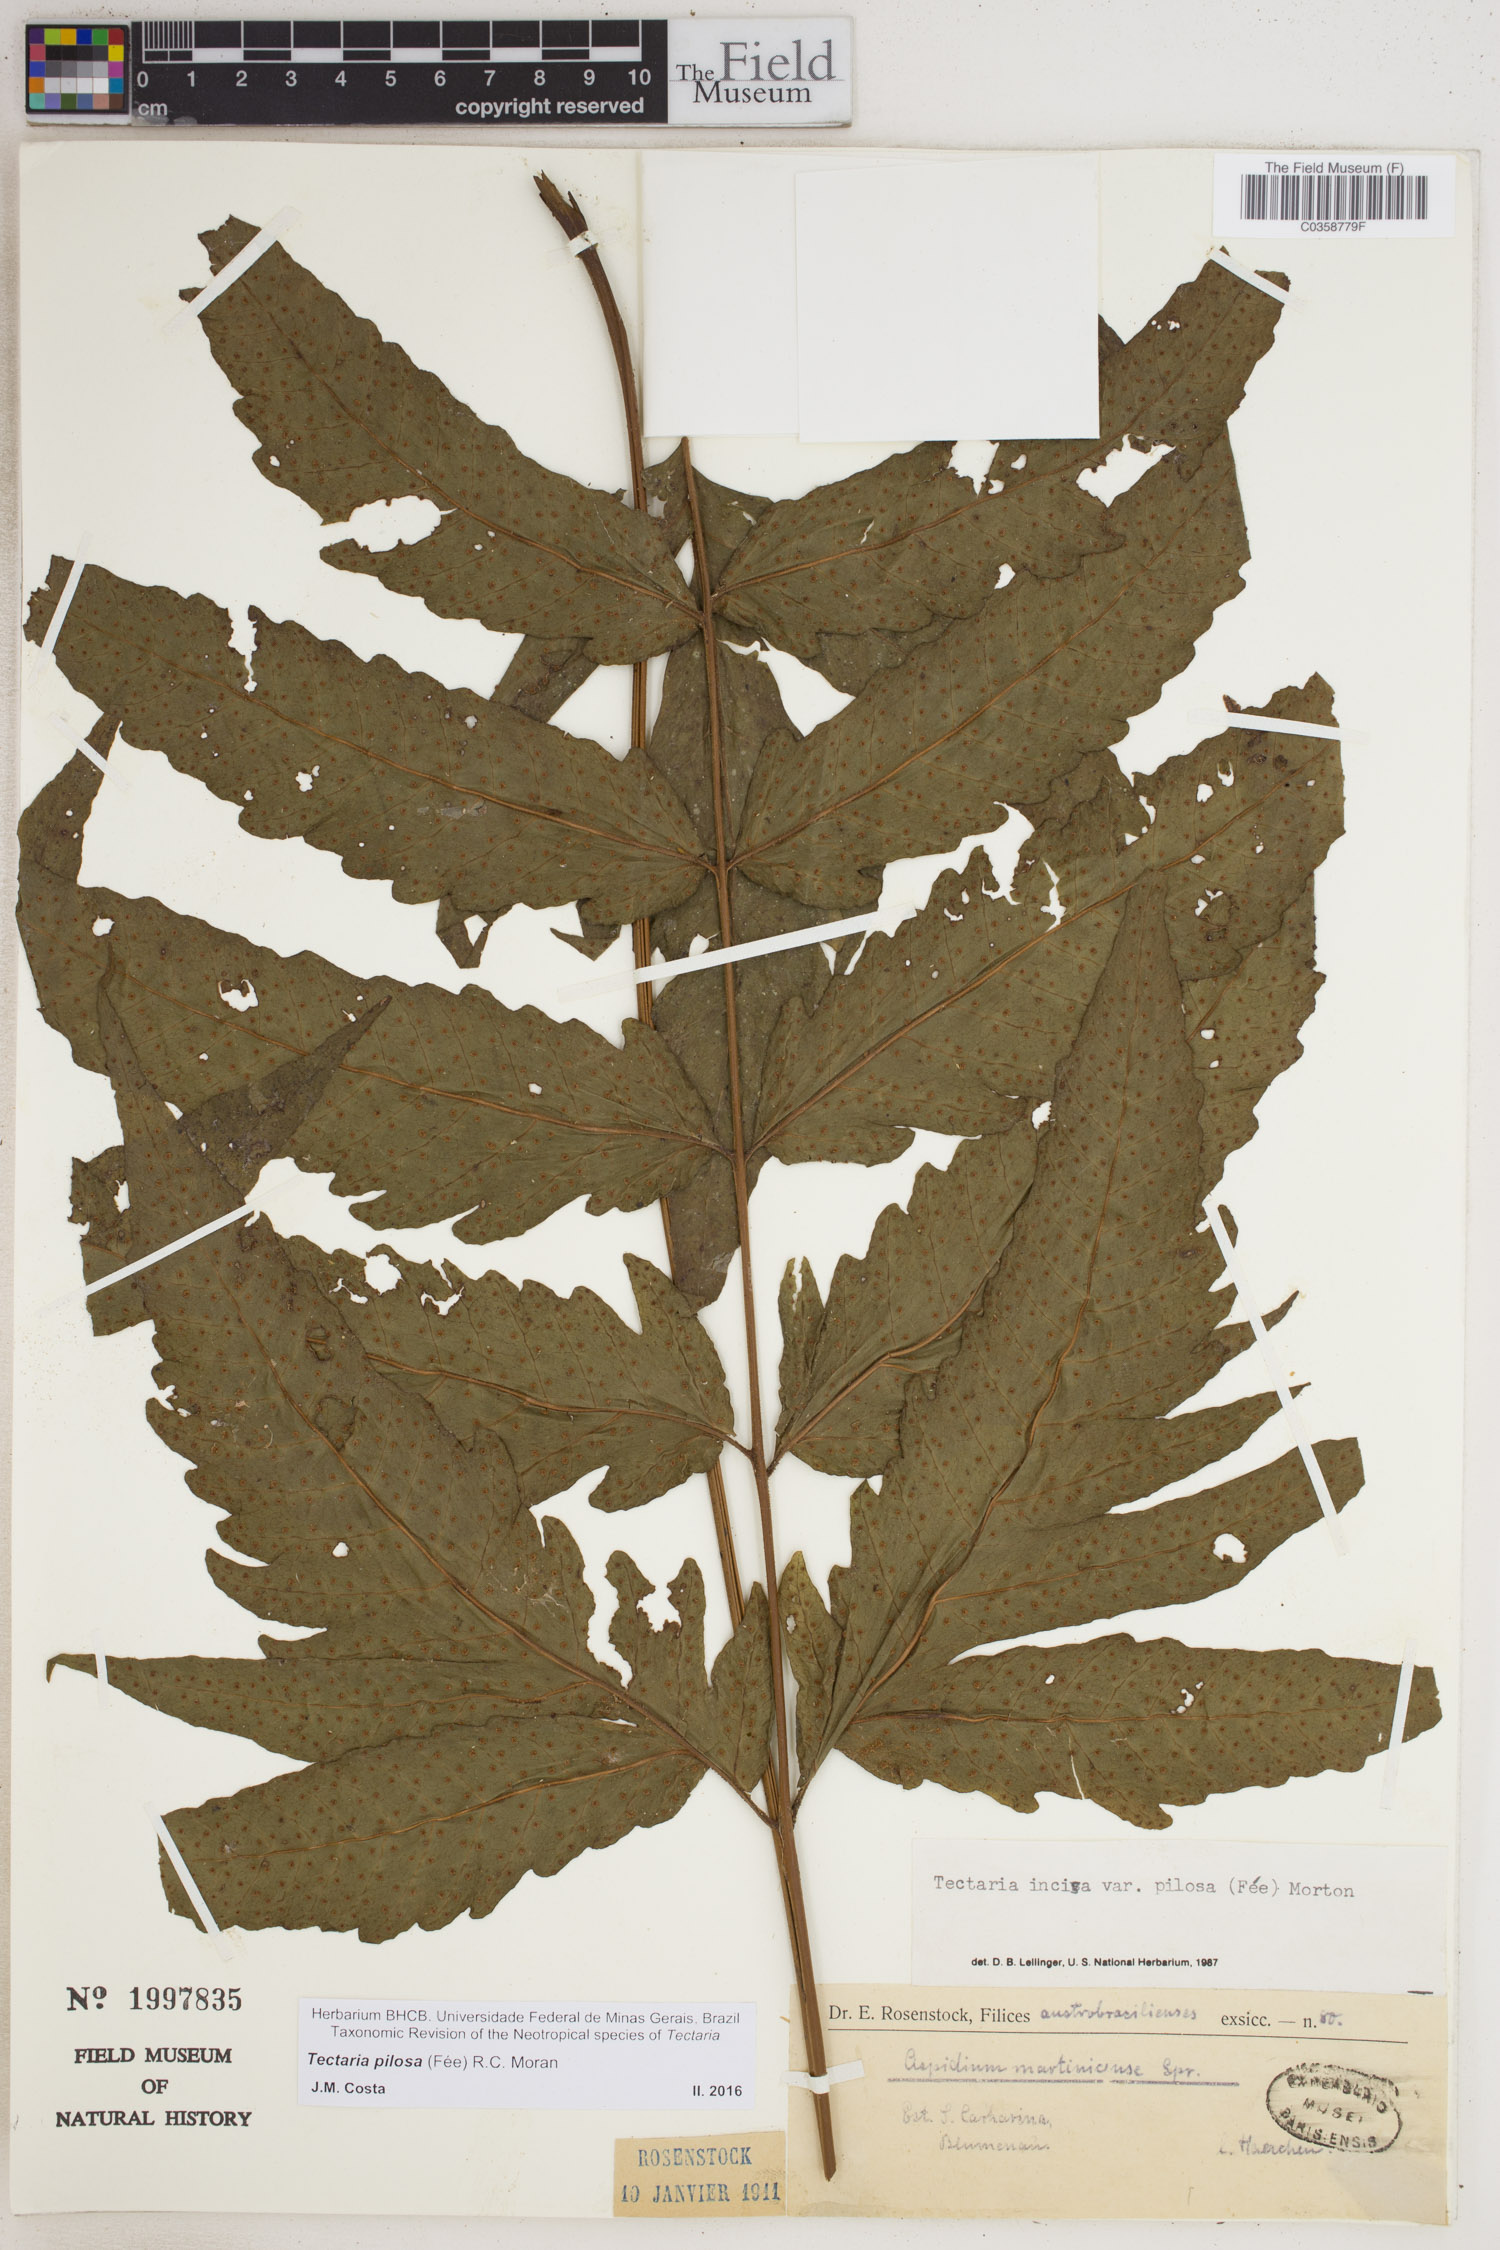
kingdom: Plantae
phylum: Tracheophyta
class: Polypodiopsida
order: Polypodiales
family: Tectariaceae
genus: Tectaria
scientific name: Tectaria pilosa
